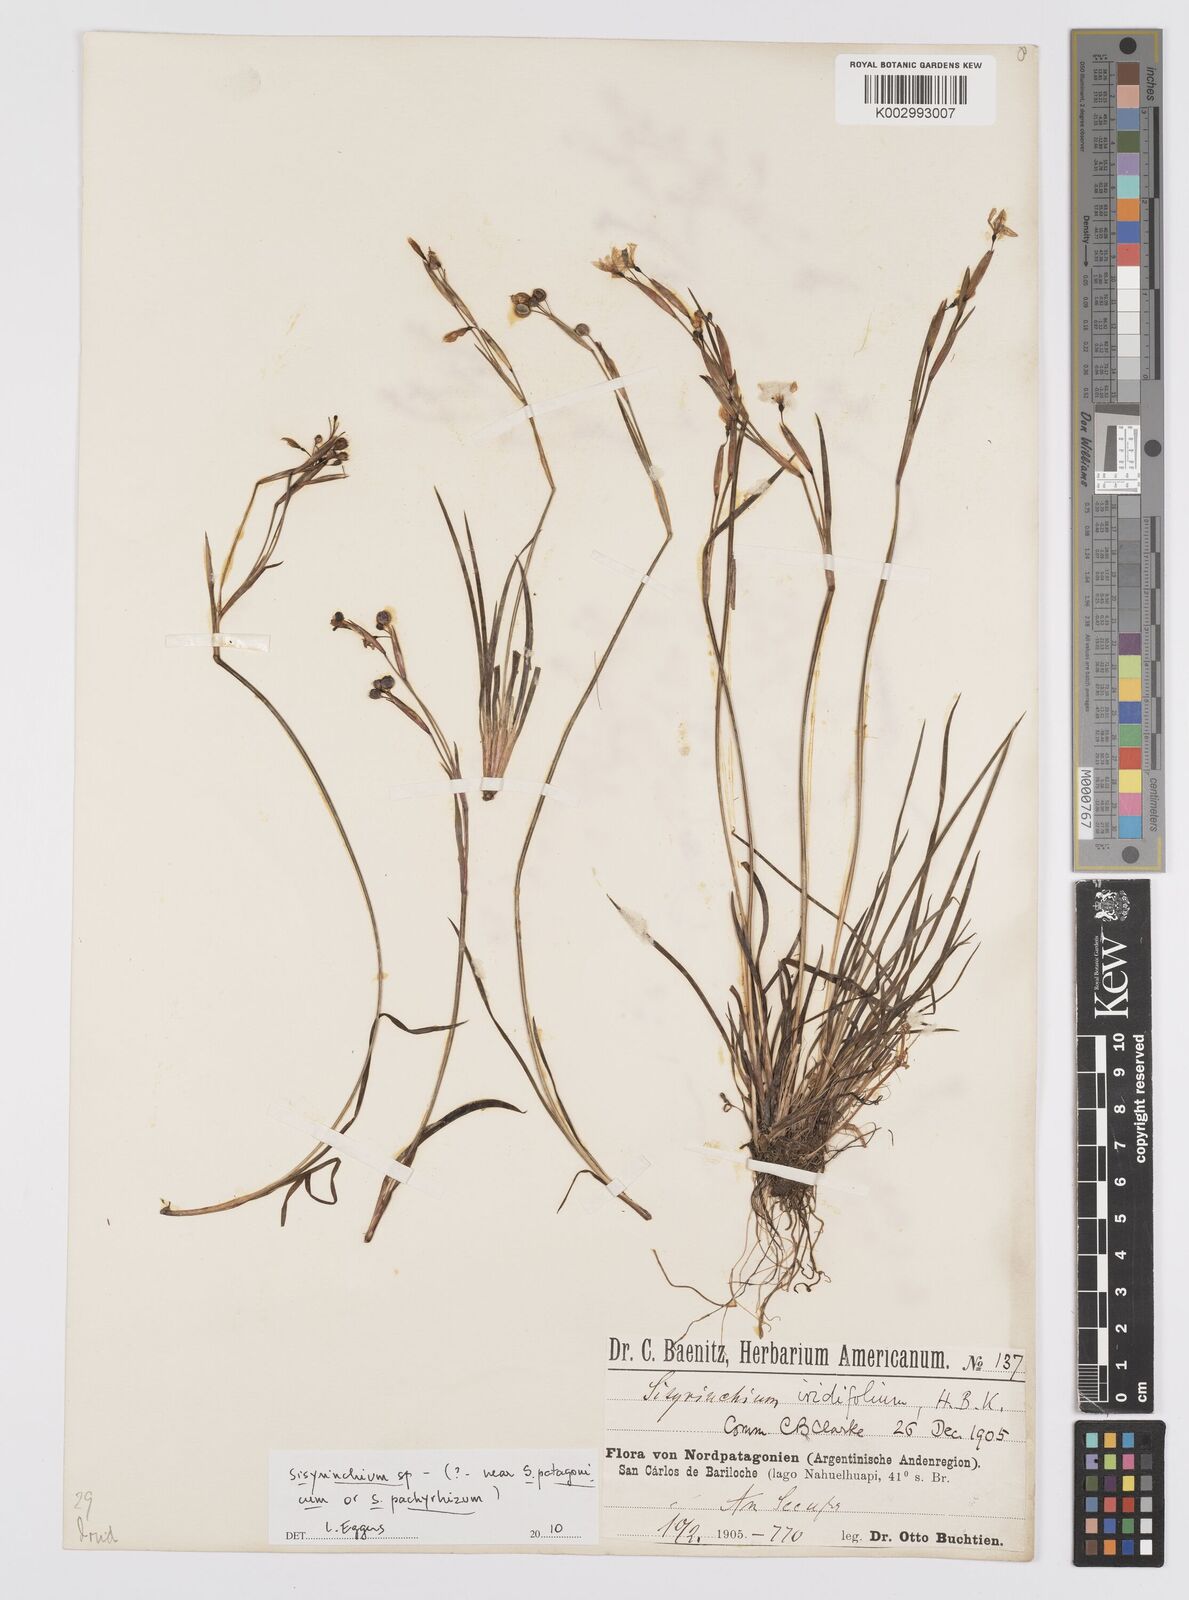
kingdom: Plantae
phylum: Tracheophyta
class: Liliopsida
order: Asparagales
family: Iridaceae
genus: Sisyrinchium
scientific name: Sisyrinchium
